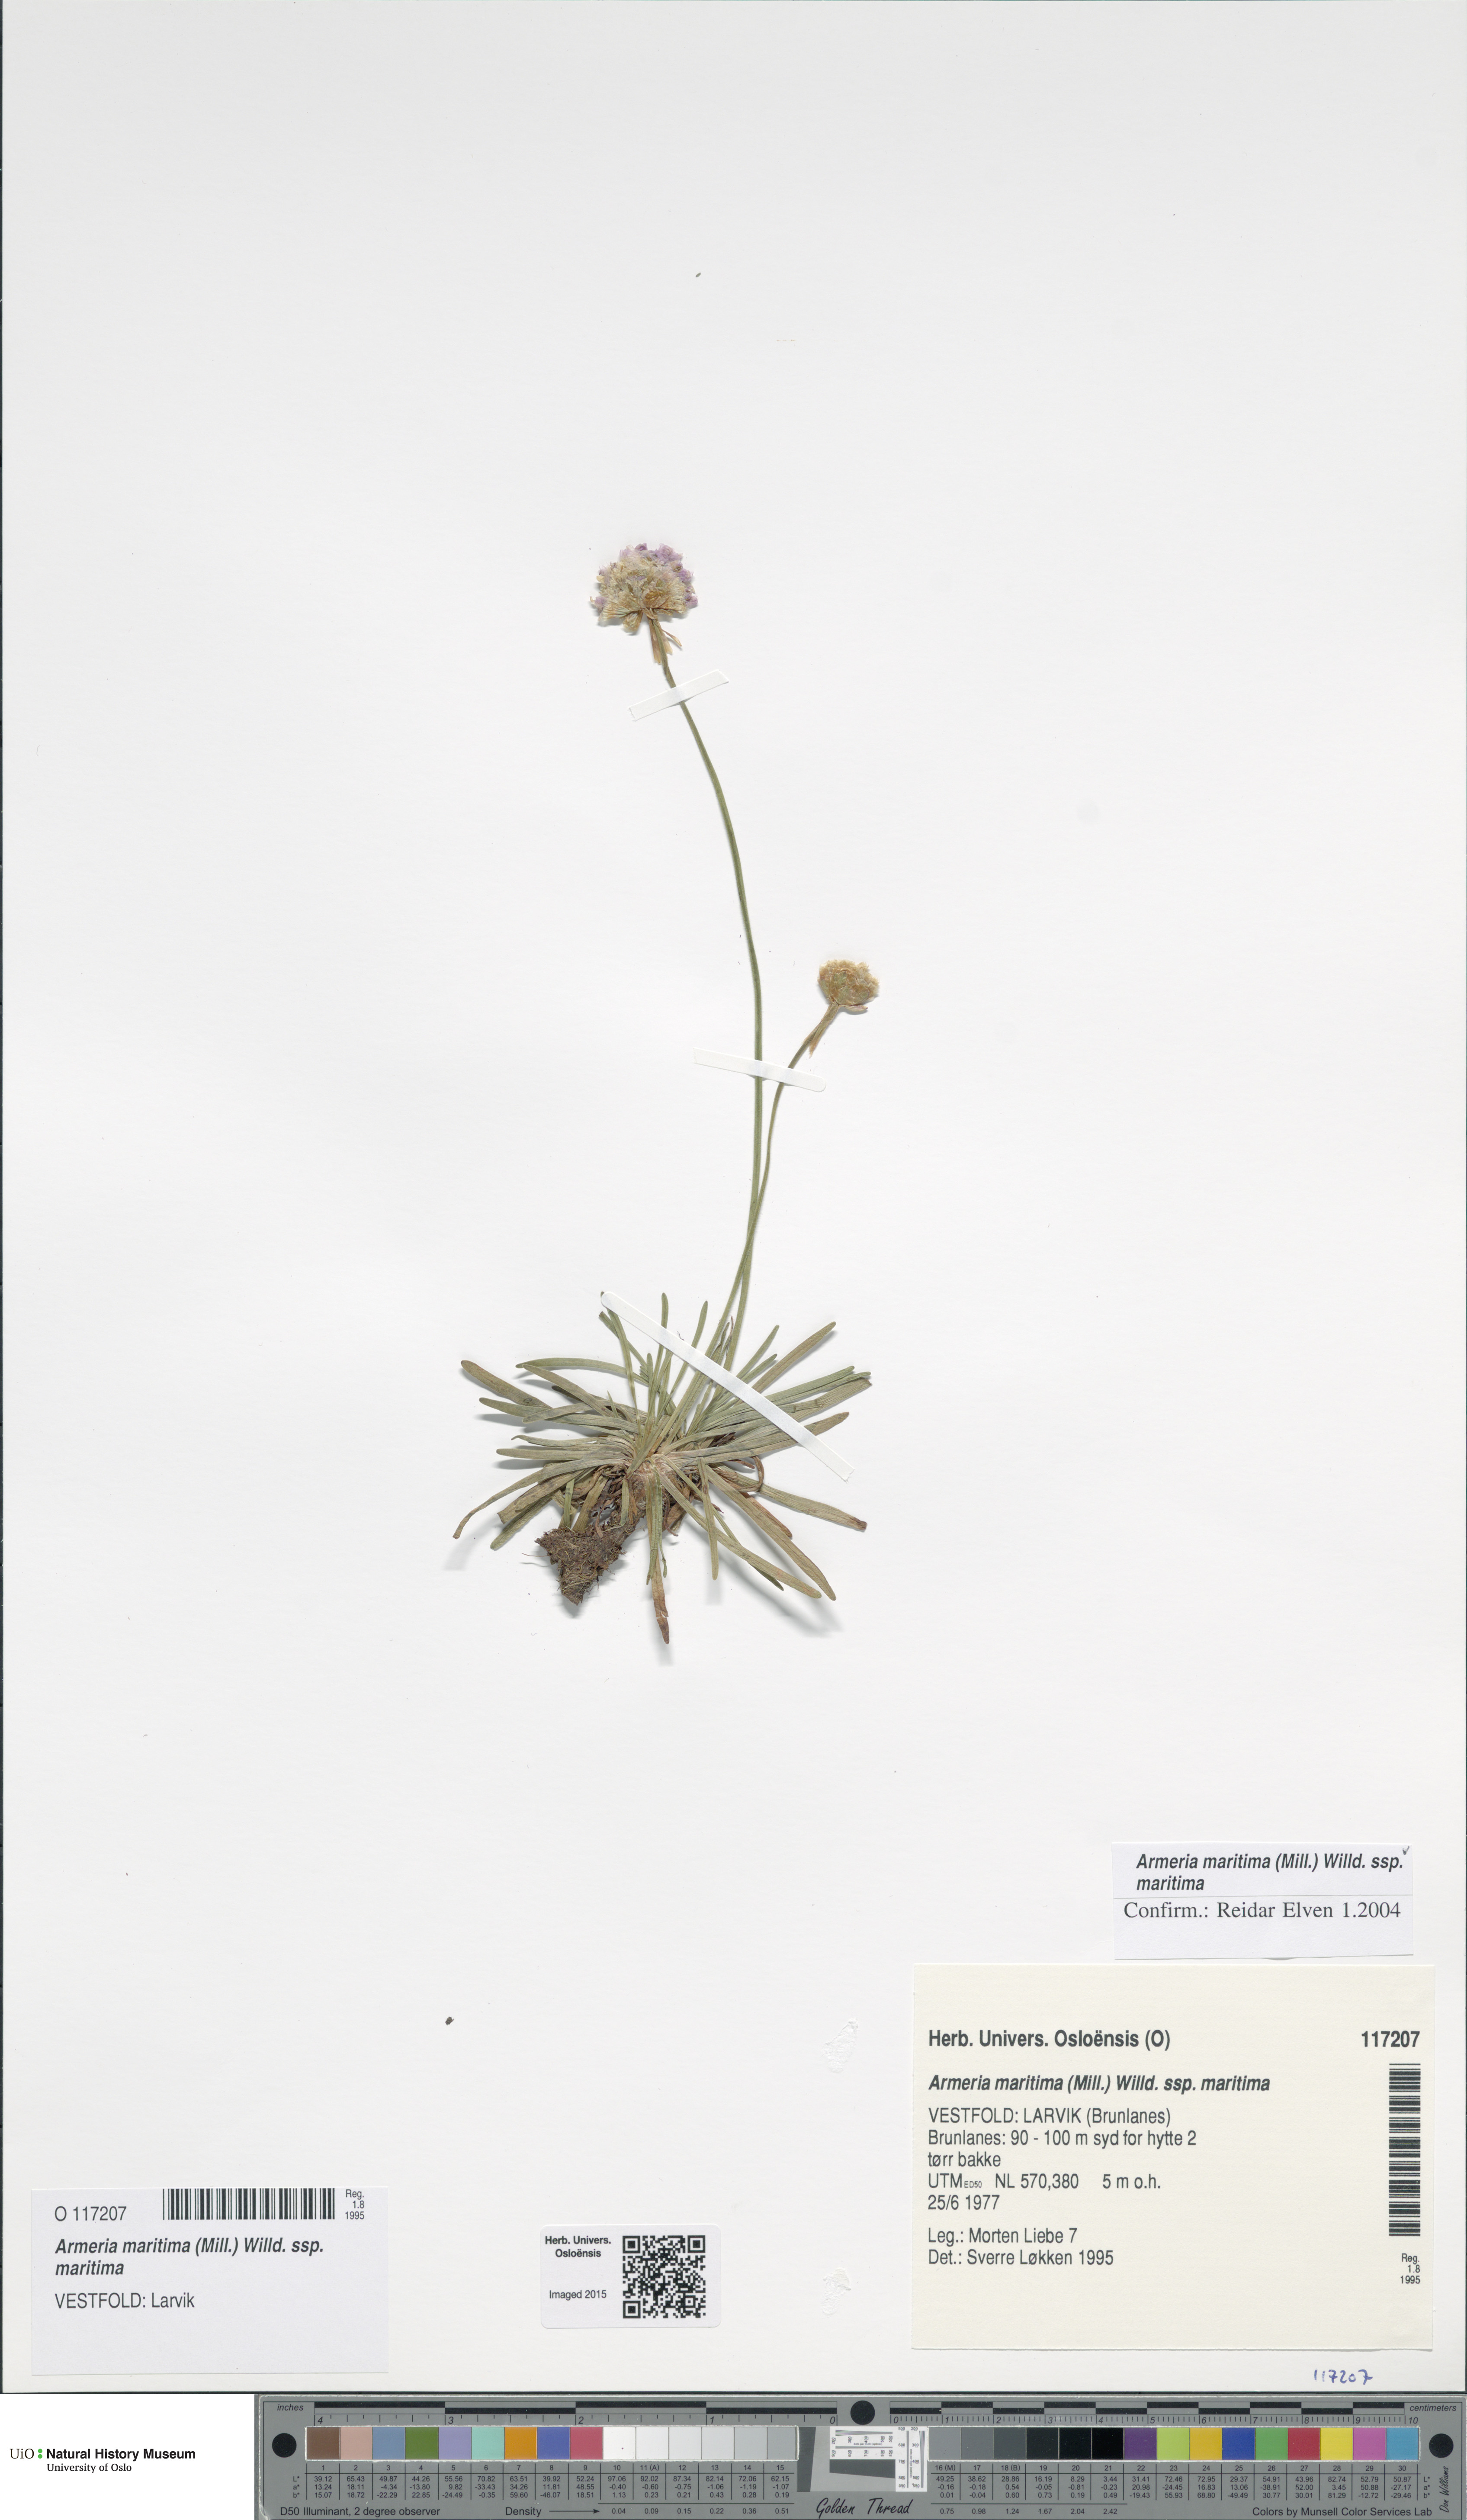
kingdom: Plantae
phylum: Tracheophyta
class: Magnoliopsida
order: Caryophyllales
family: Plumbaginaceae
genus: Armeria
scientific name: Armeria maritima
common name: Thrift
